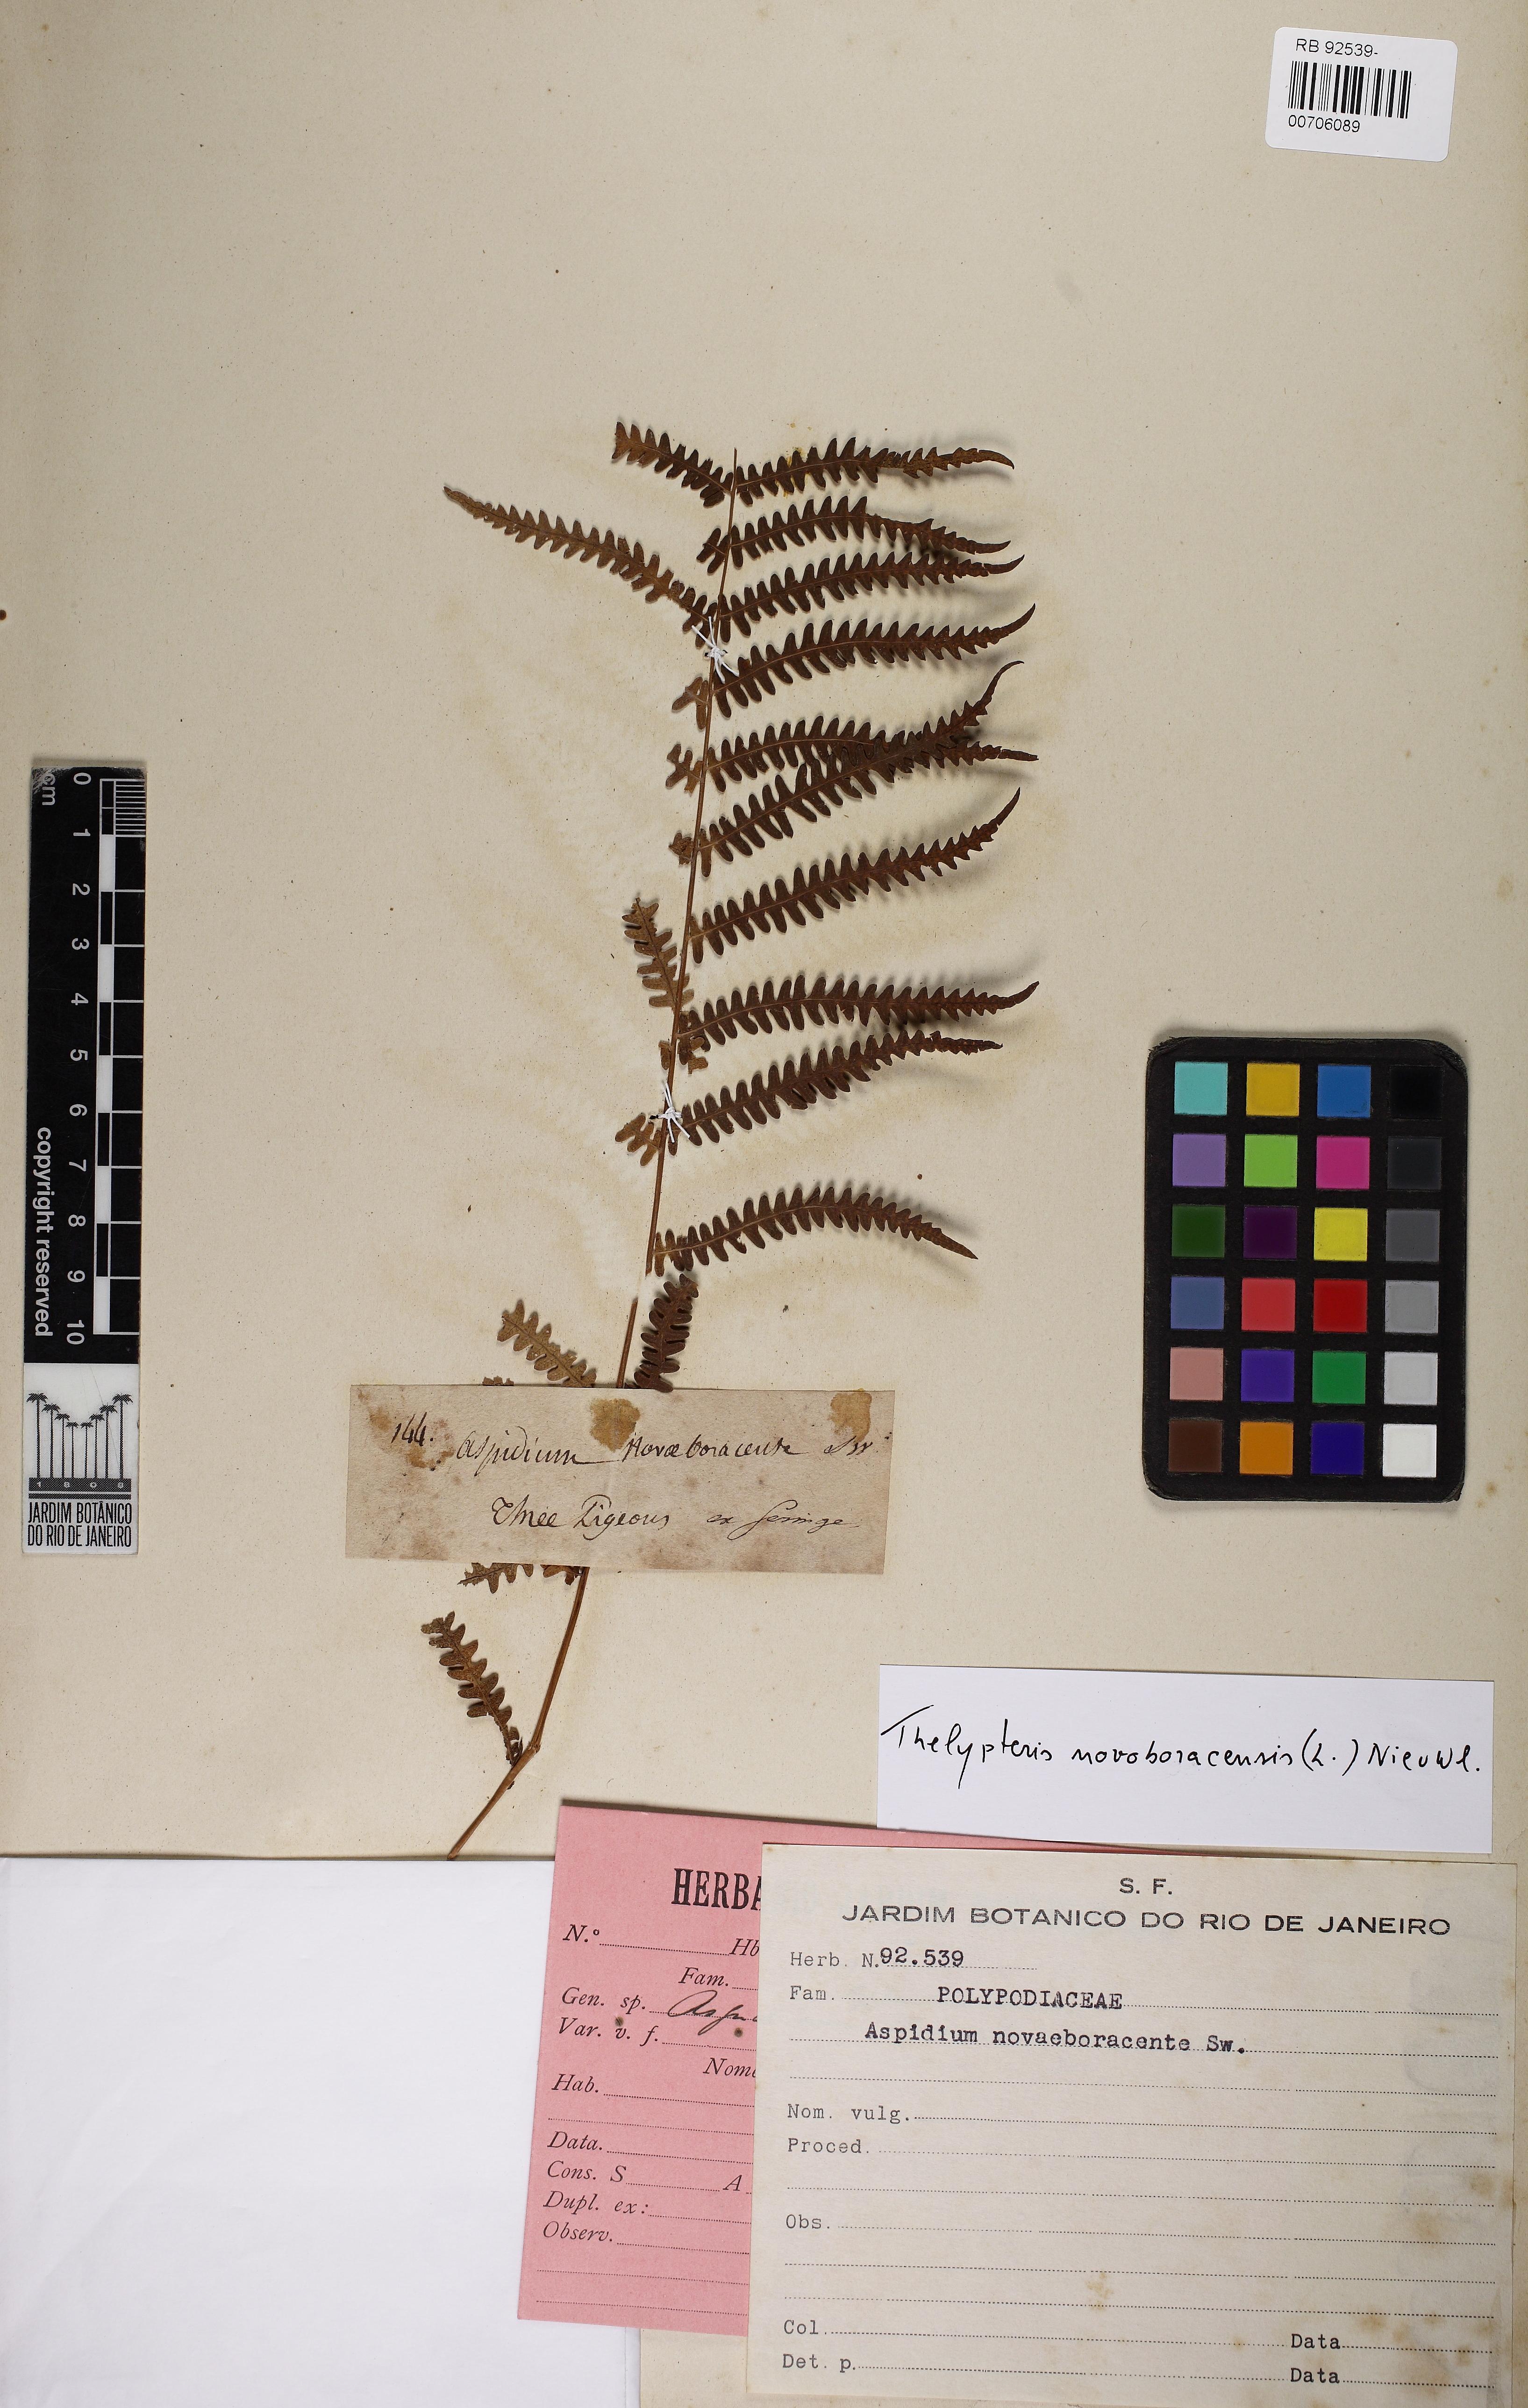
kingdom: Plantae
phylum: Tracheophyta
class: Polypodiopsida
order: Polypodiales
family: Thelypteridaceae
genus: Amauropelta
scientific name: Amauropelta noveboracensis
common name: New york fern
